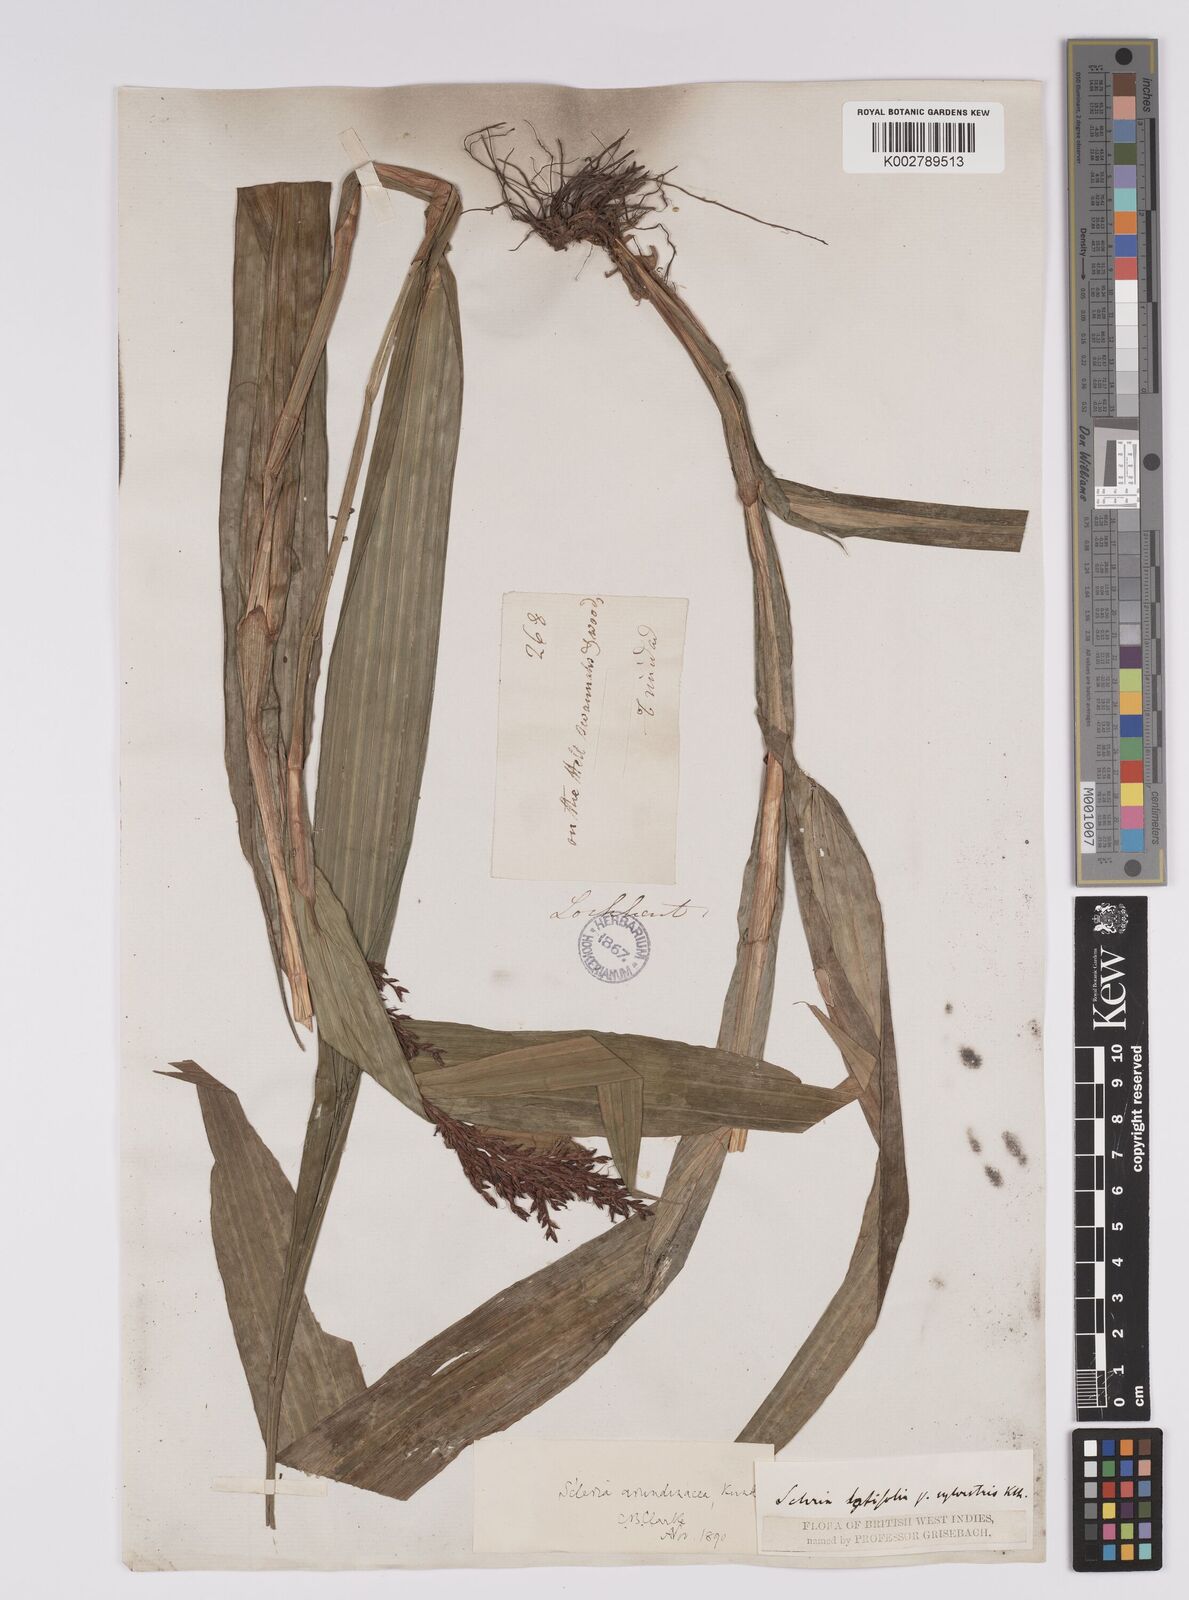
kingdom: Plantae
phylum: Tracheophyta
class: Liliopsida
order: Poales
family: Cyperaceae
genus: Scleria
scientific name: Scleria latifolia
